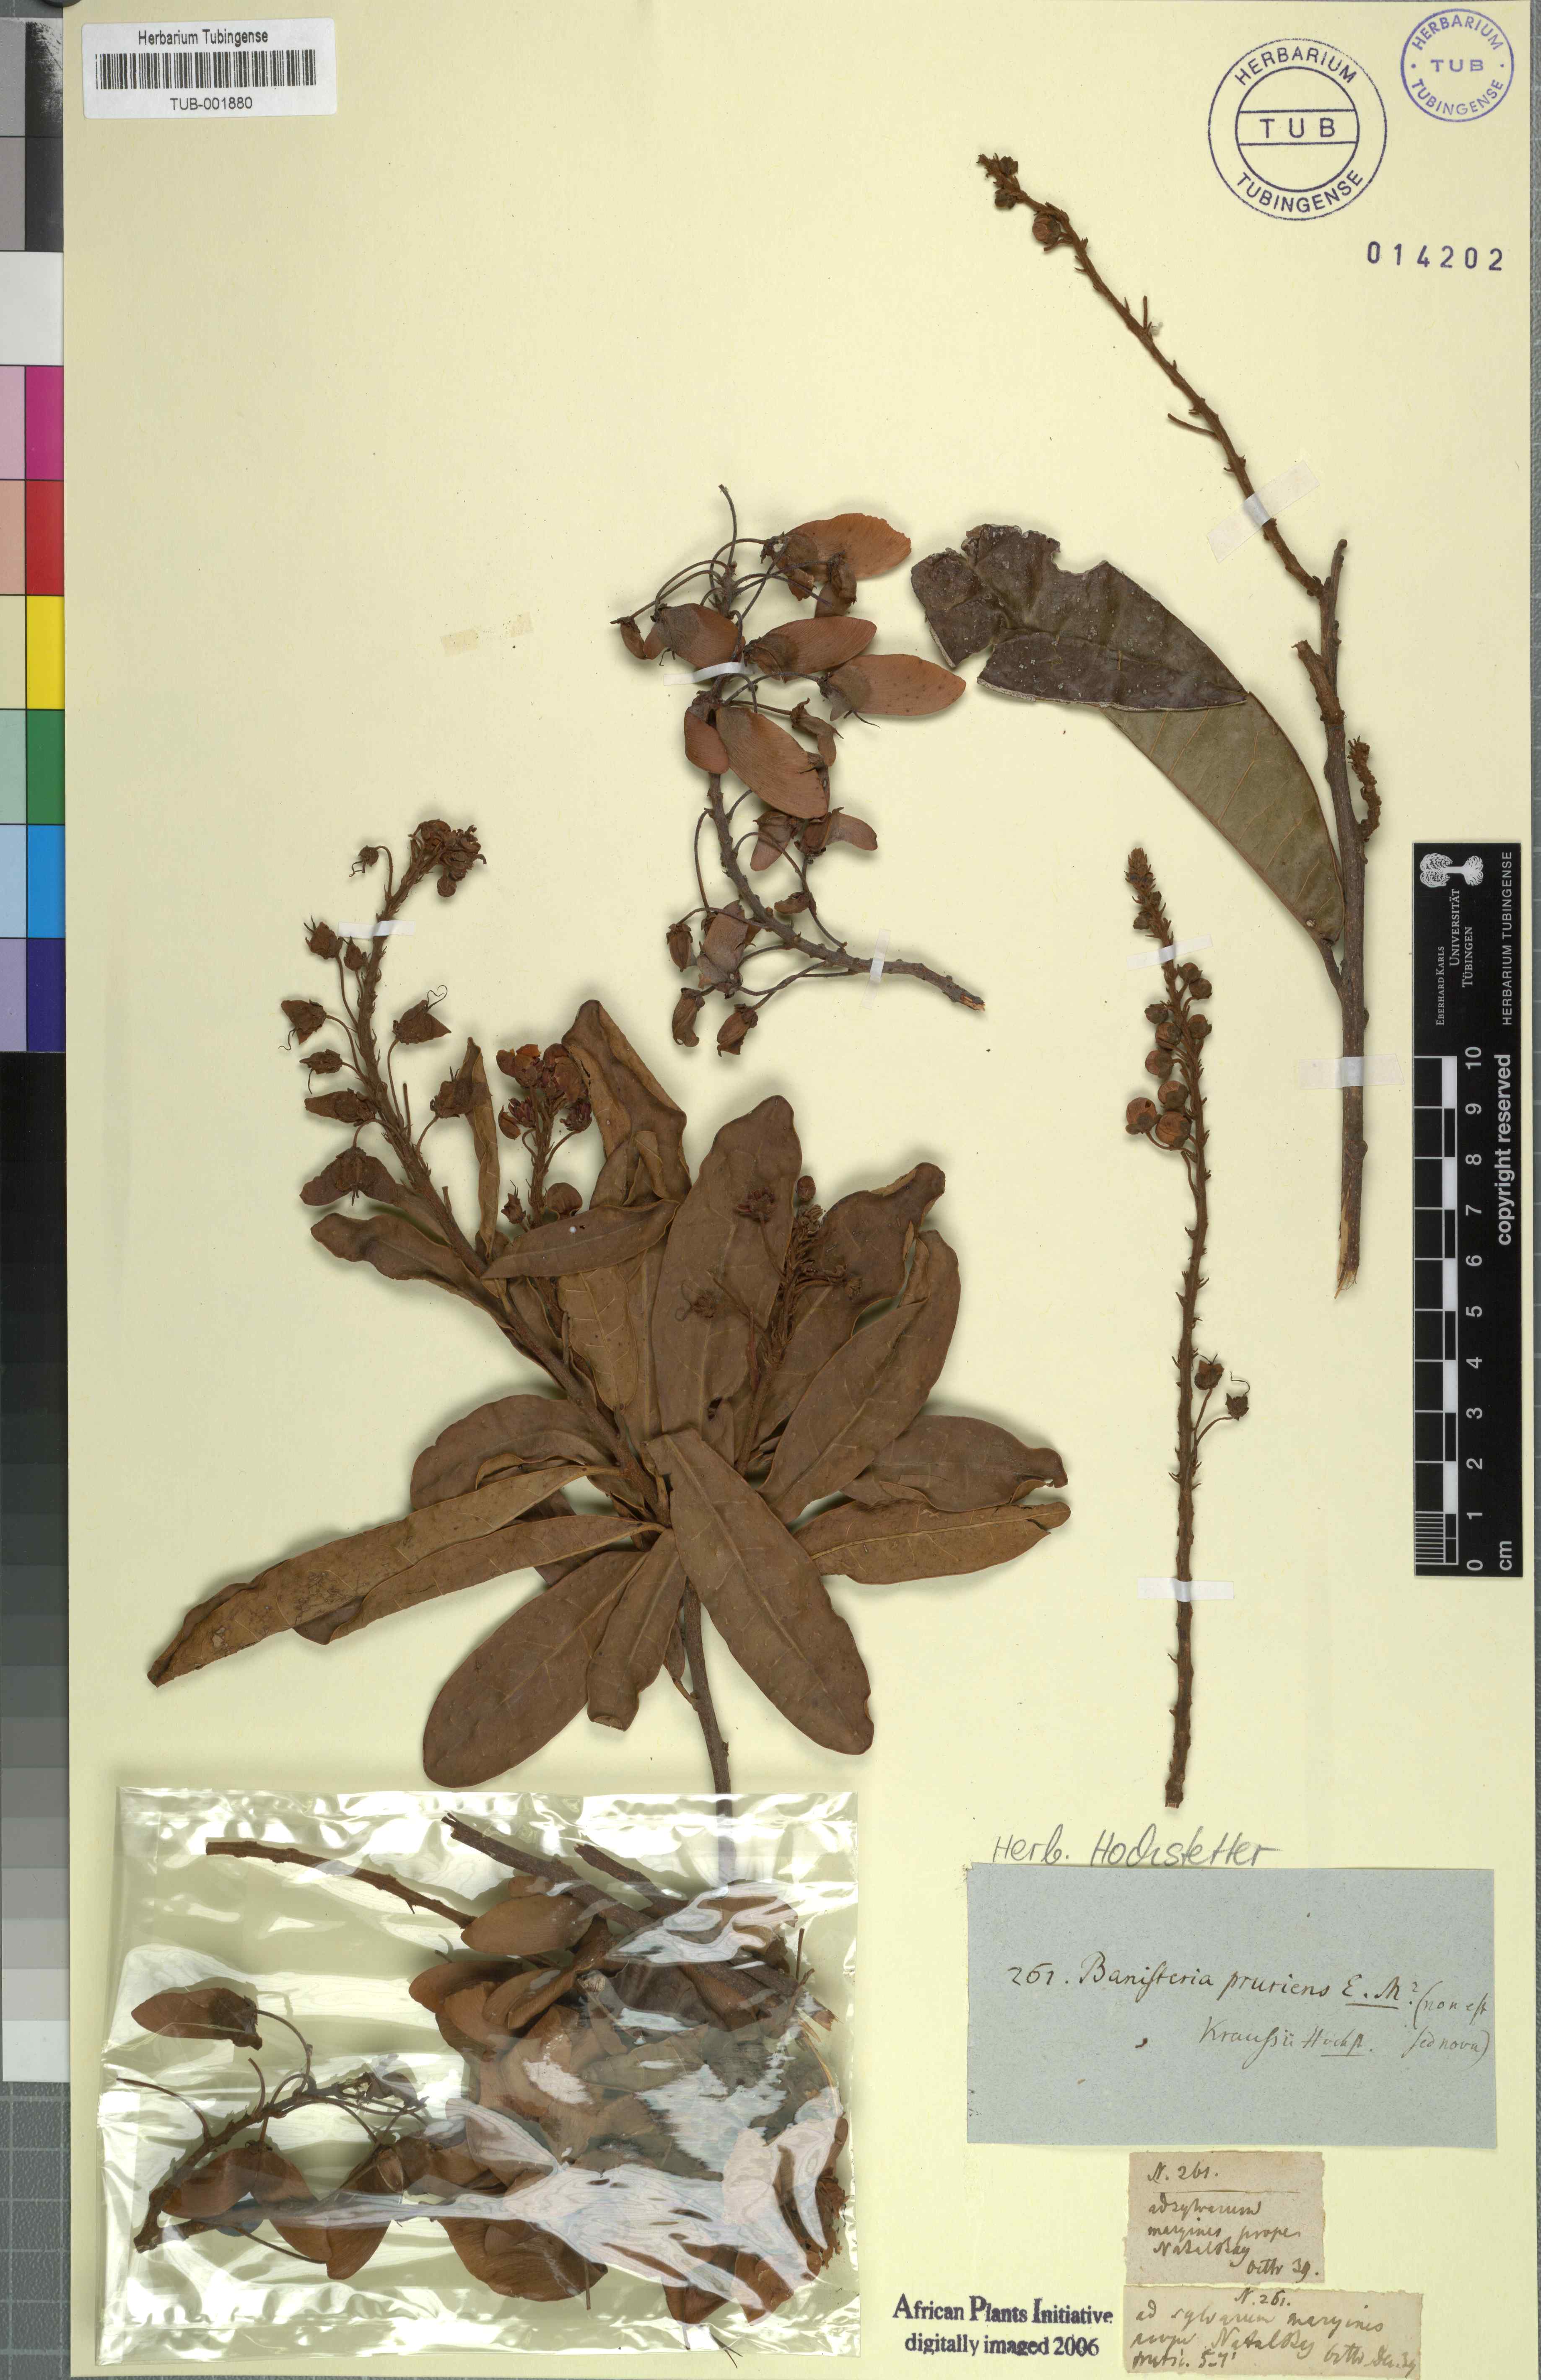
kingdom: Plantae
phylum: Tracheophyta
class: Magnoliopsida
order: Malpighiales
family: Malpighiaceae
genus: Heteropterys
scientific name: Heteropterys
